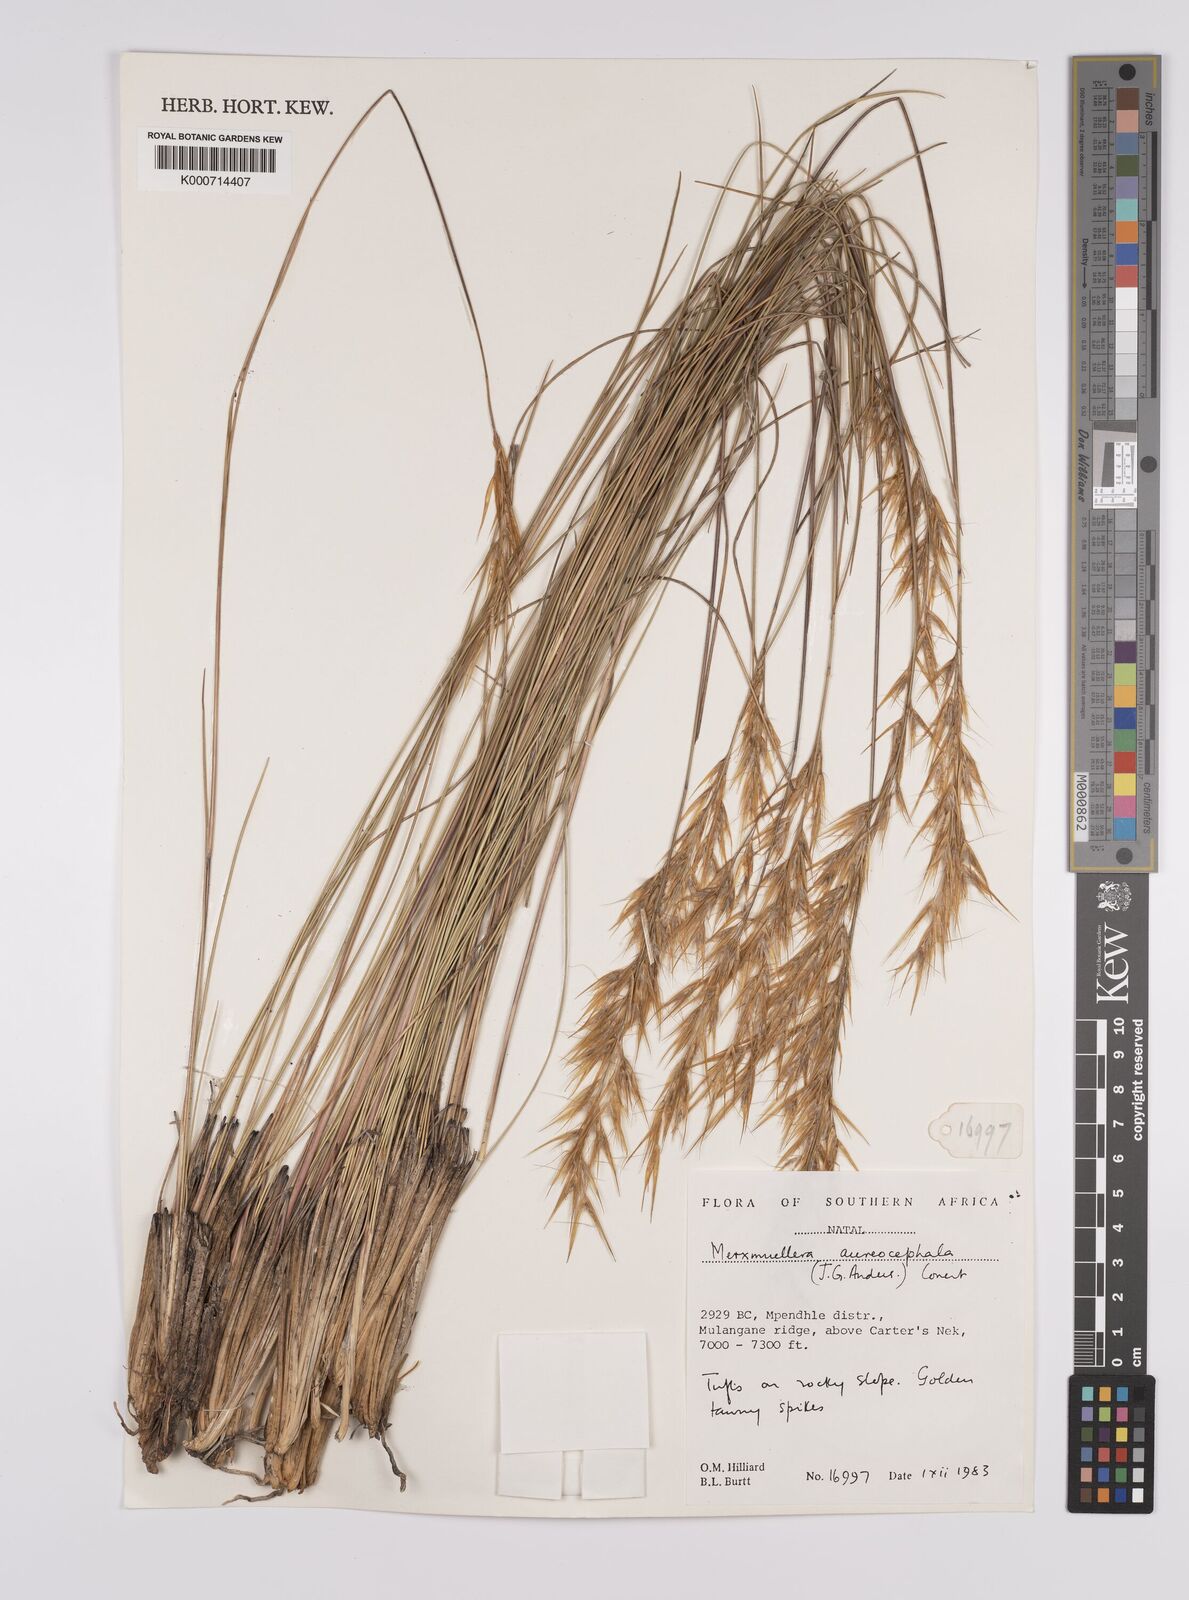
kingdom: Plantae
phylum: Tracheophyta
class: Liliopsida
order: Poales
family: Poaceae
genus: Rytidosperma
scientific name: Rytidosperma
